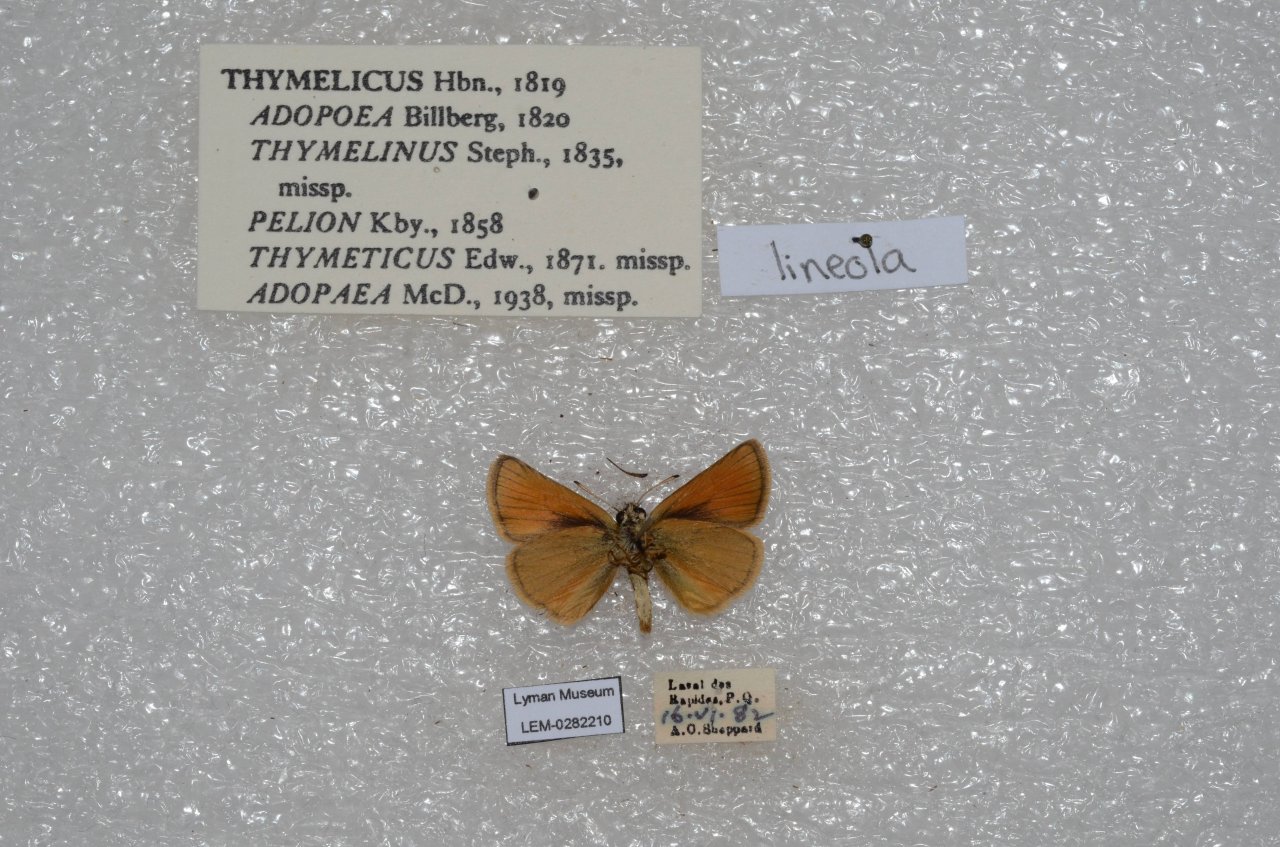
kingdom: Animalia
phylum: Arthropoda
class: Insecta
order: Lepidoptera
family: Hesperiidae
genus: Thymelicus
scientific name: Thymelicus lineola
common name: European Skipper
